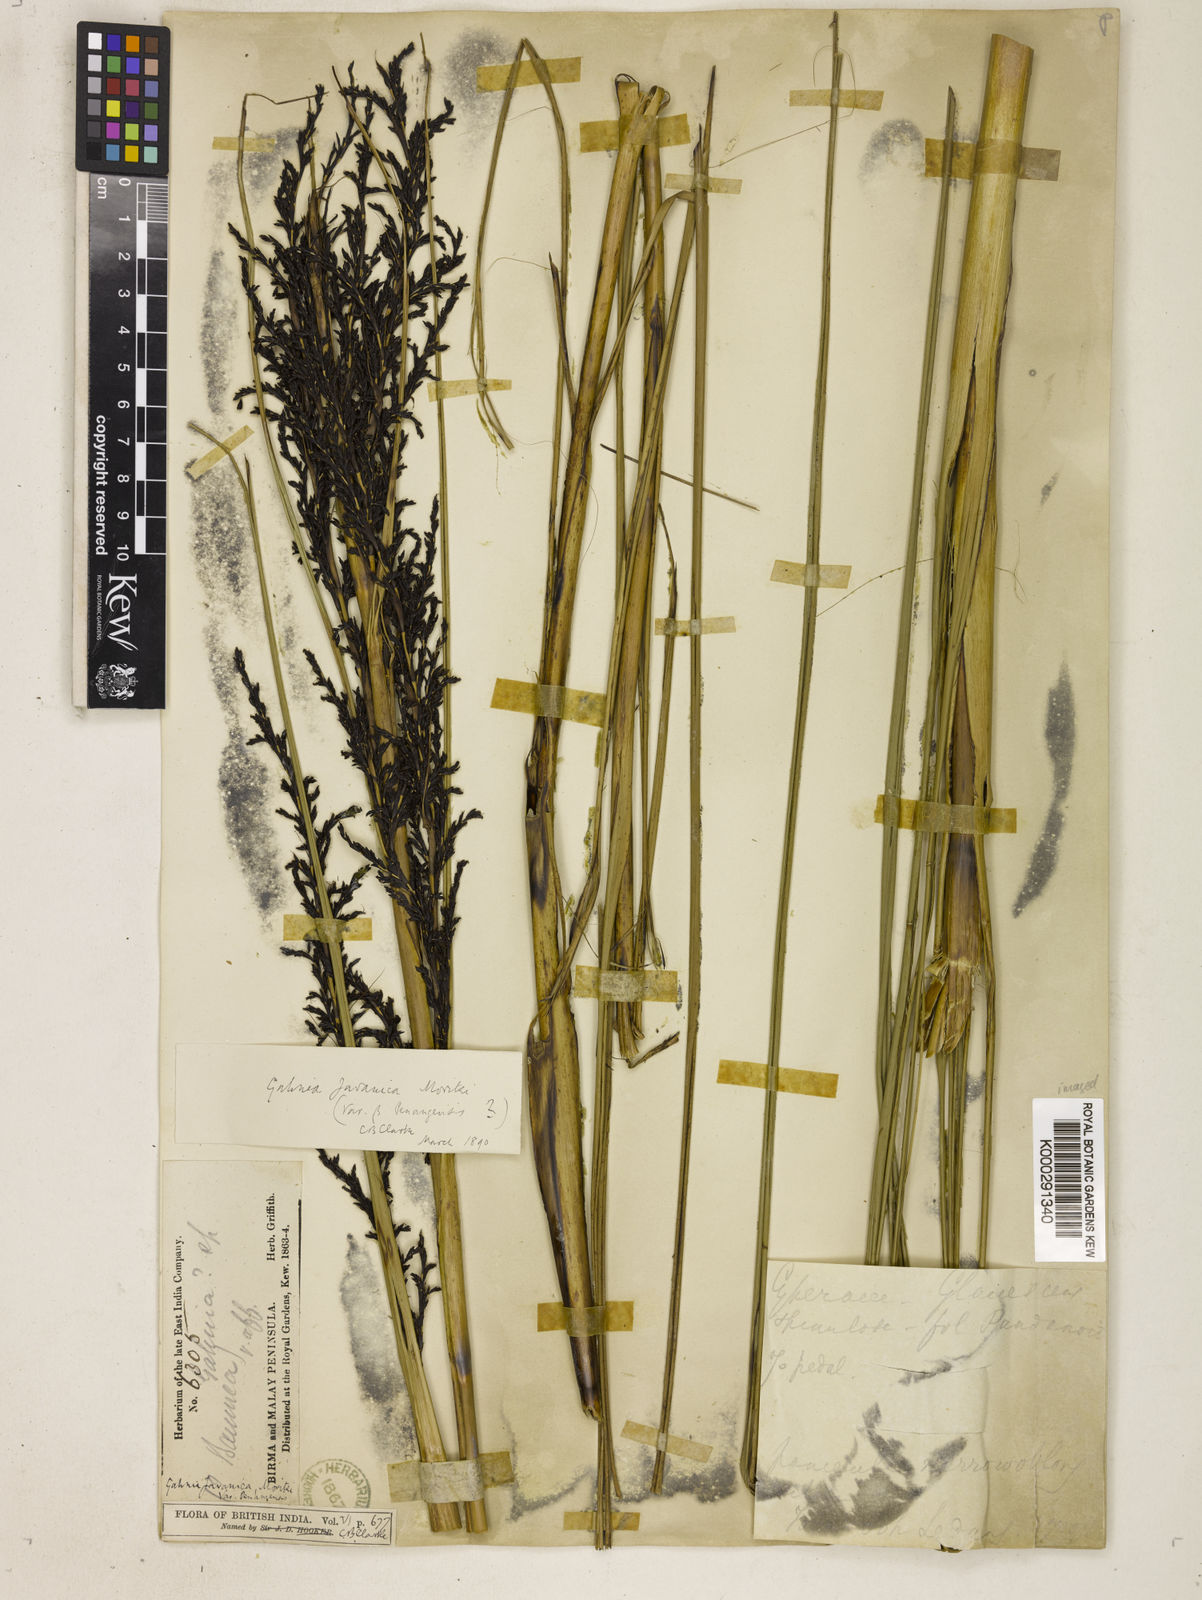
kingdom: Plantae
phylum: Tracheophyta
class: Liliopsida
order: Poales
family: Cyperaceae
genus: Gahnia
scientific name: Gahnia baniensis
